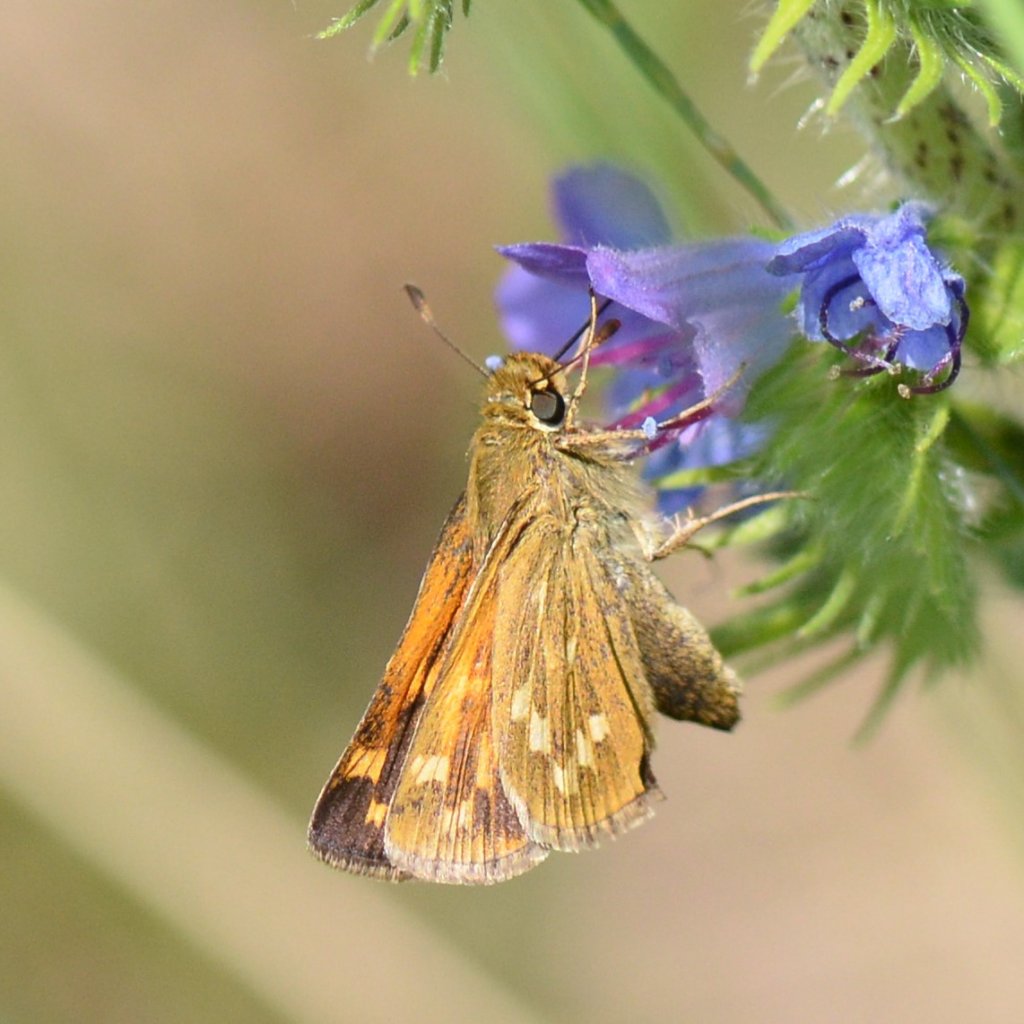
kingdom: Animalia
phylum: Arthropoda
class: Insecta
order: Lepidoptera
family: Hesperiidae
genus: Hesperia
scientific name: Hesperia sassacus
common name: Sassacus Skipper
